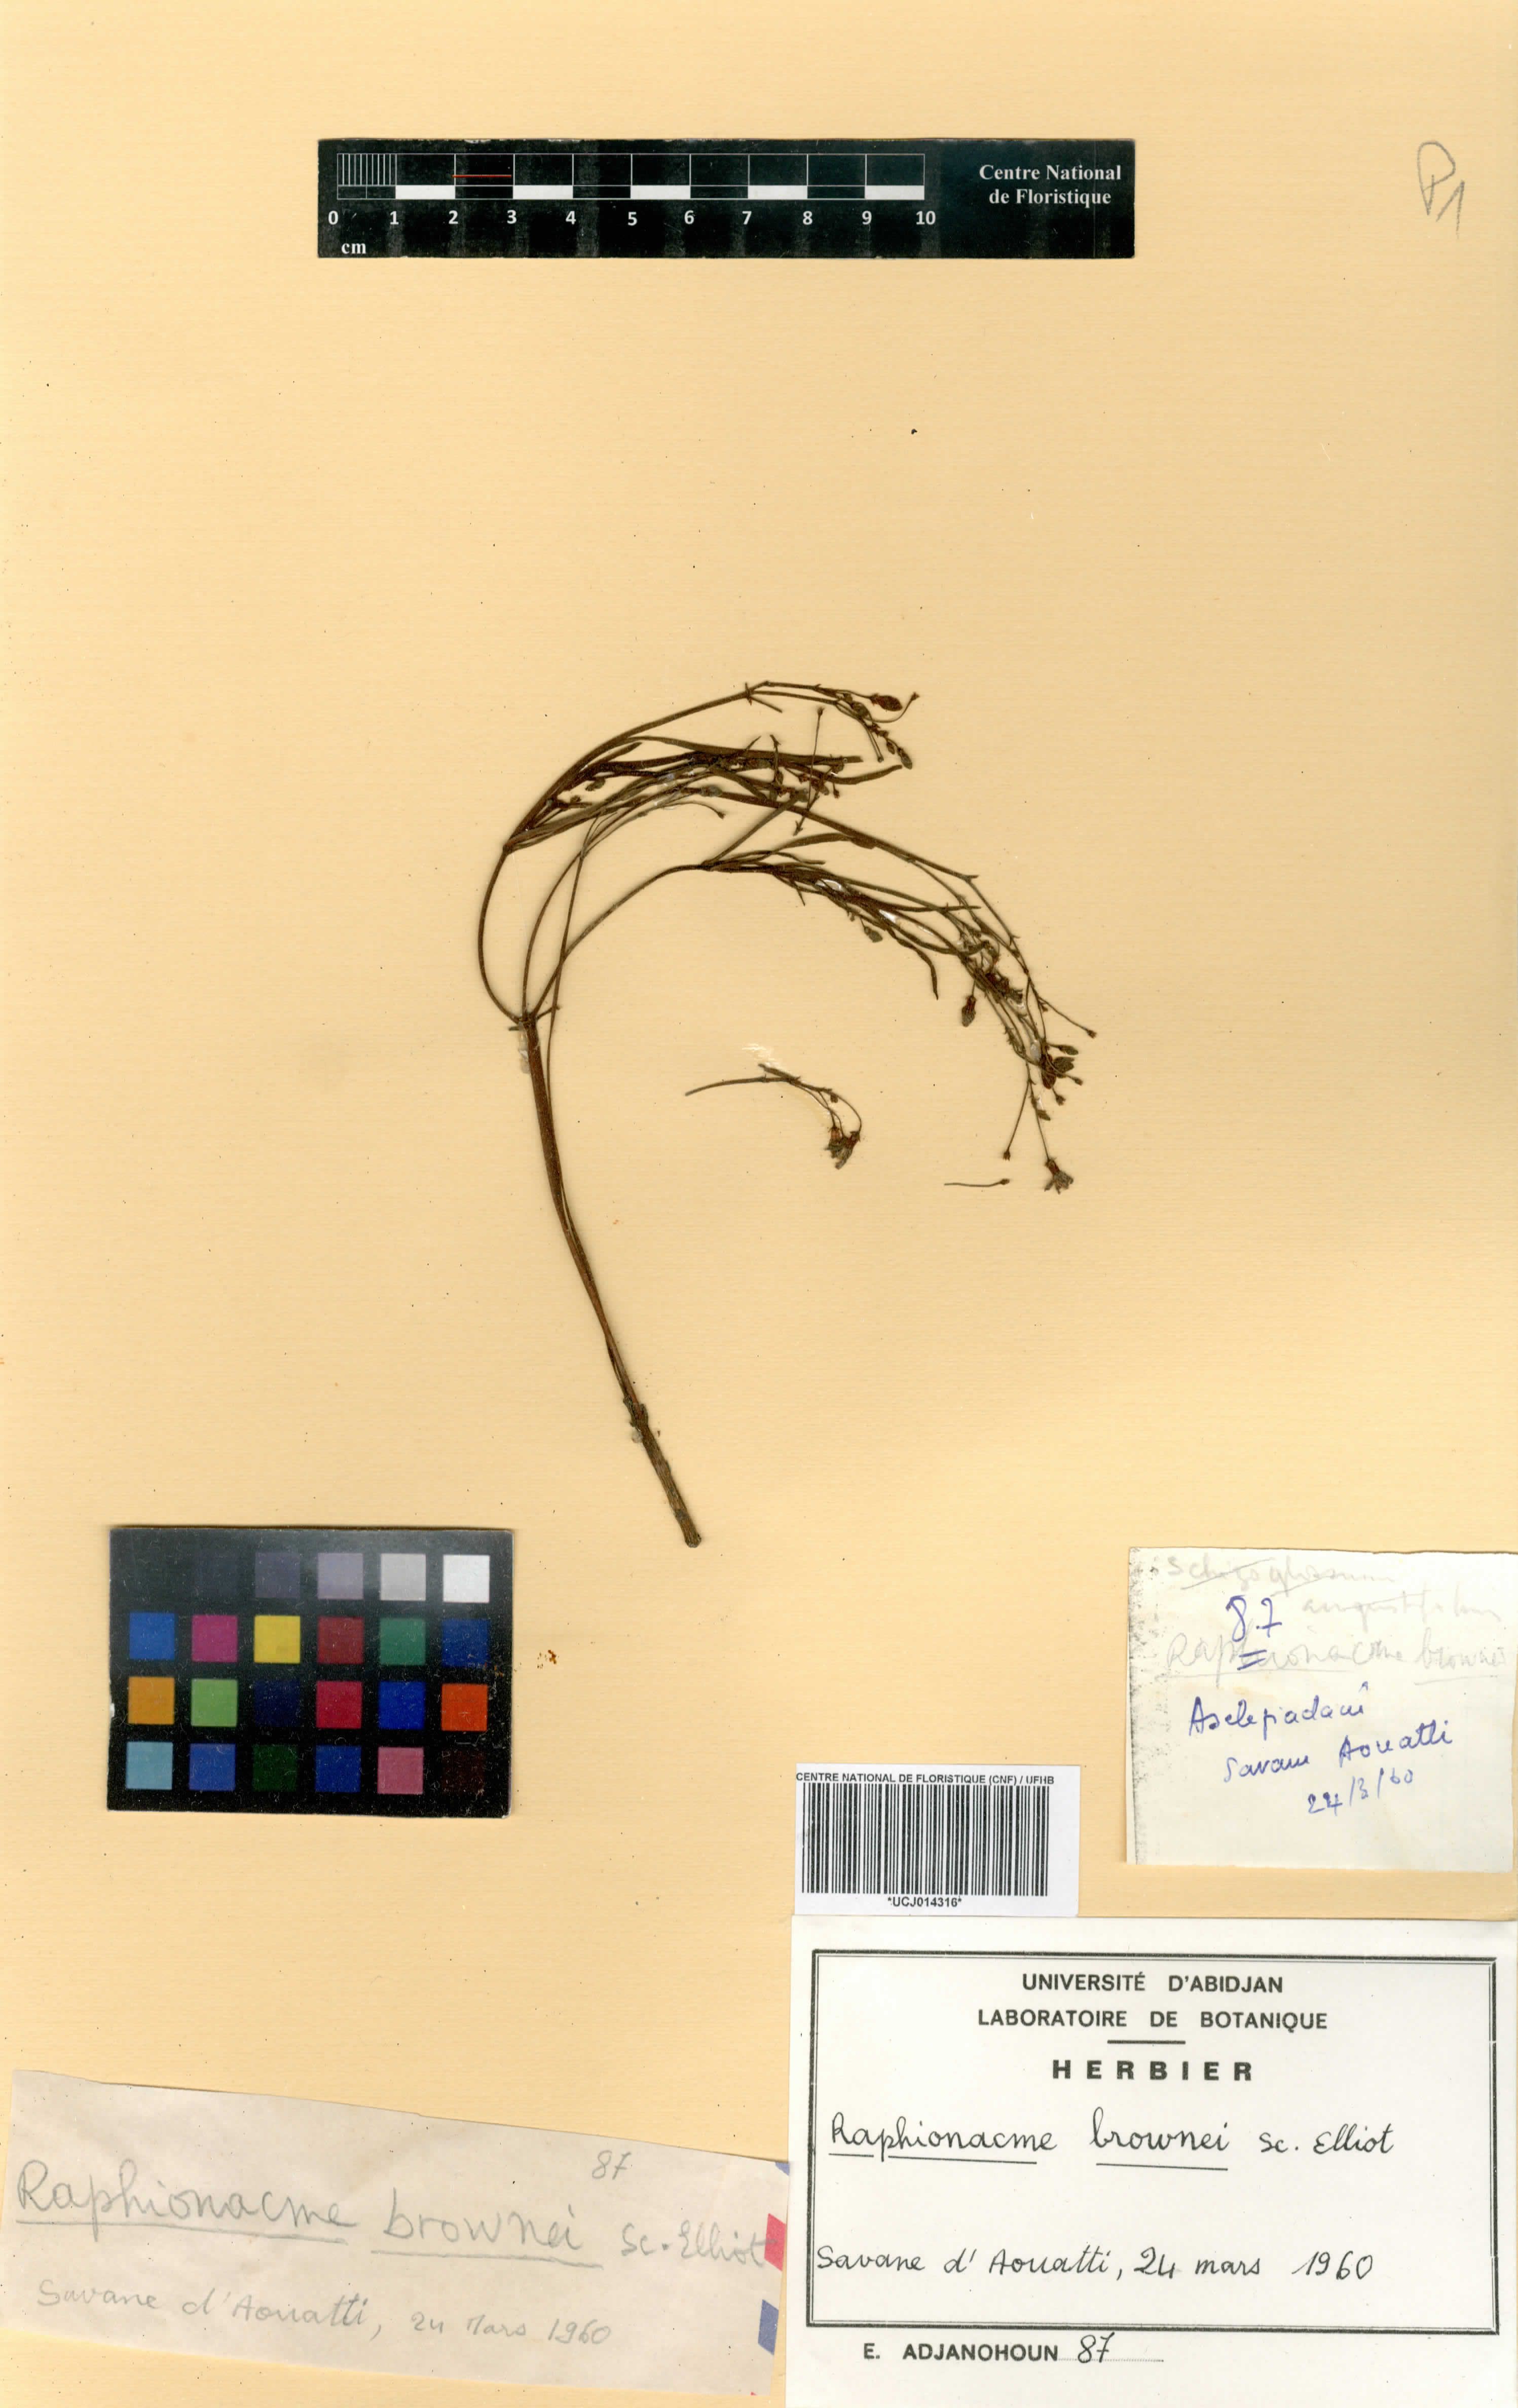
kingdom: Plantae
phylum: Tracheophyta
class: Magnoliopsida
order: Gentianales
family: Apocynaceae
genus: Raphionacme
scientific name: Raphionacme brownii
